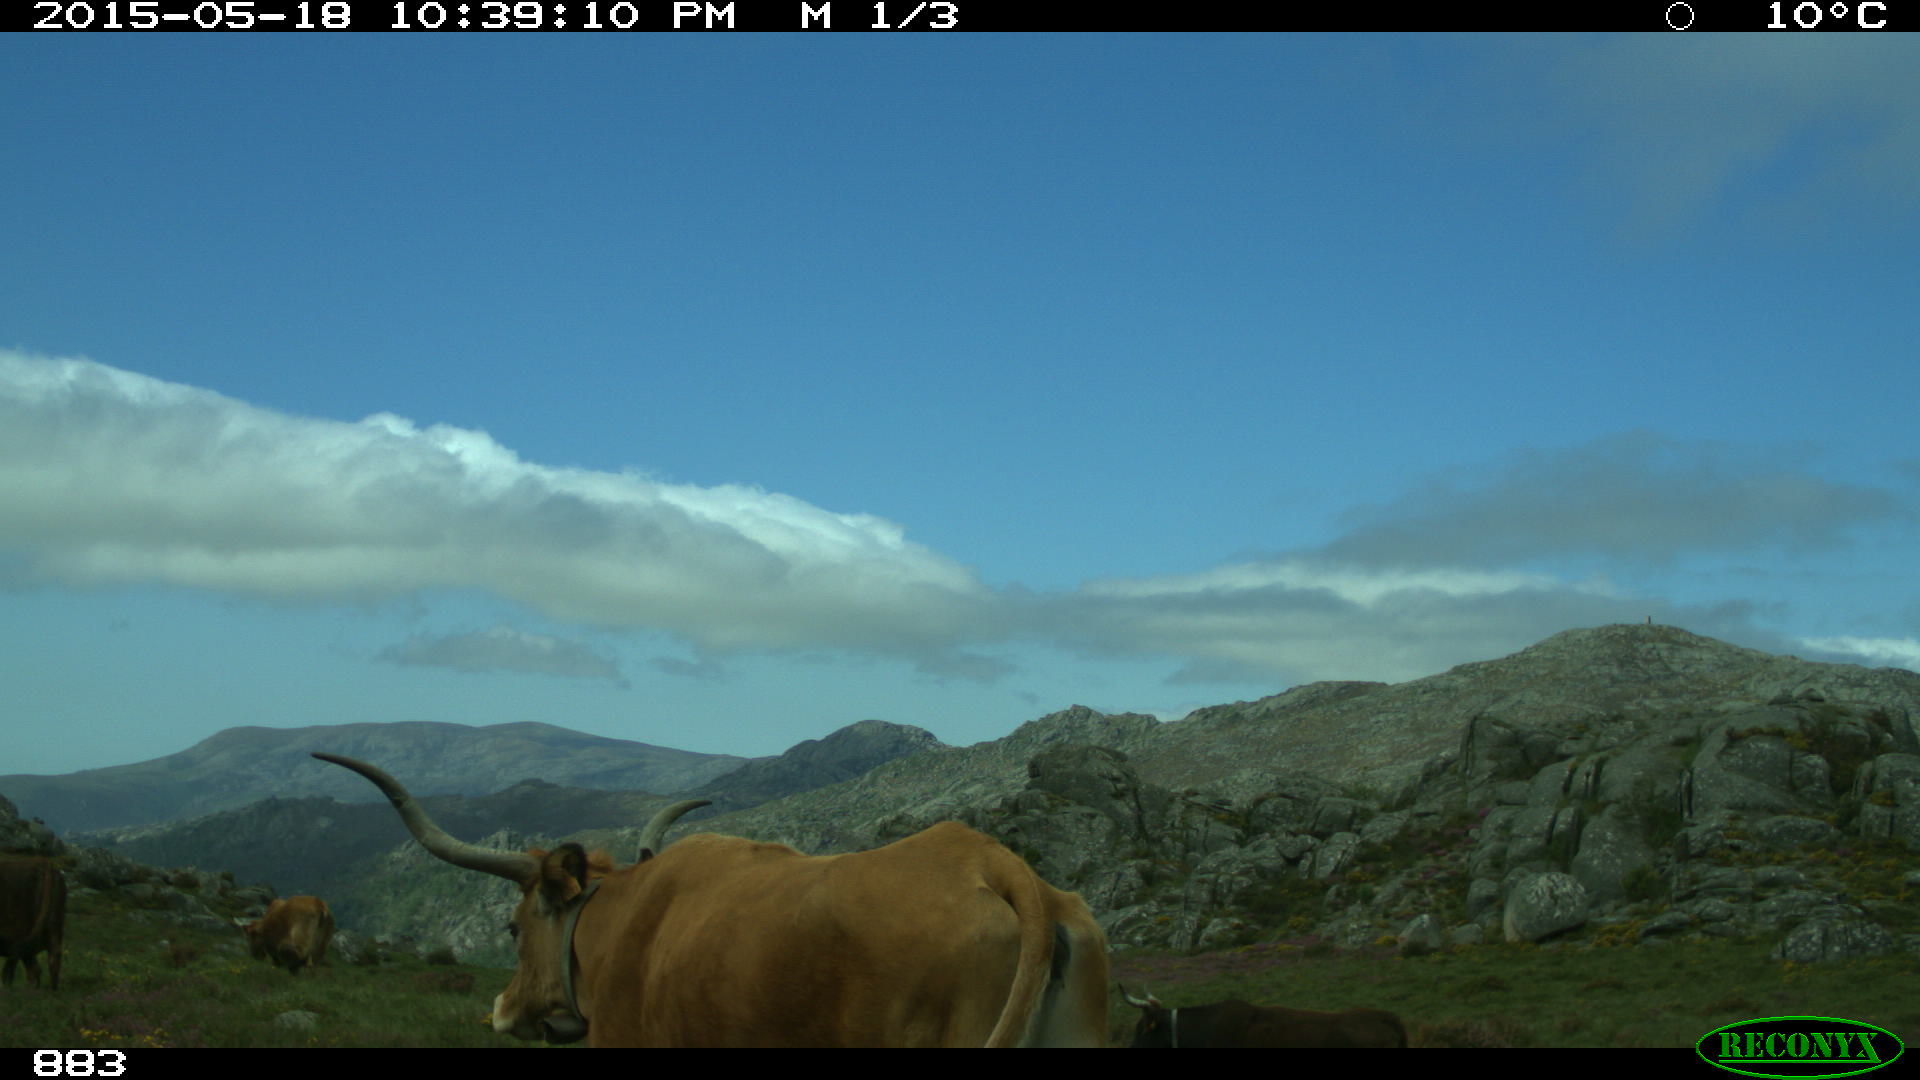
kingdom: Animalia
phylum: Chordata
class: Mammalia
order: Artiodactyla
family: Bovidae
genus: Bos
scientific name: Bos taurus
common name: Domesticated cattle
